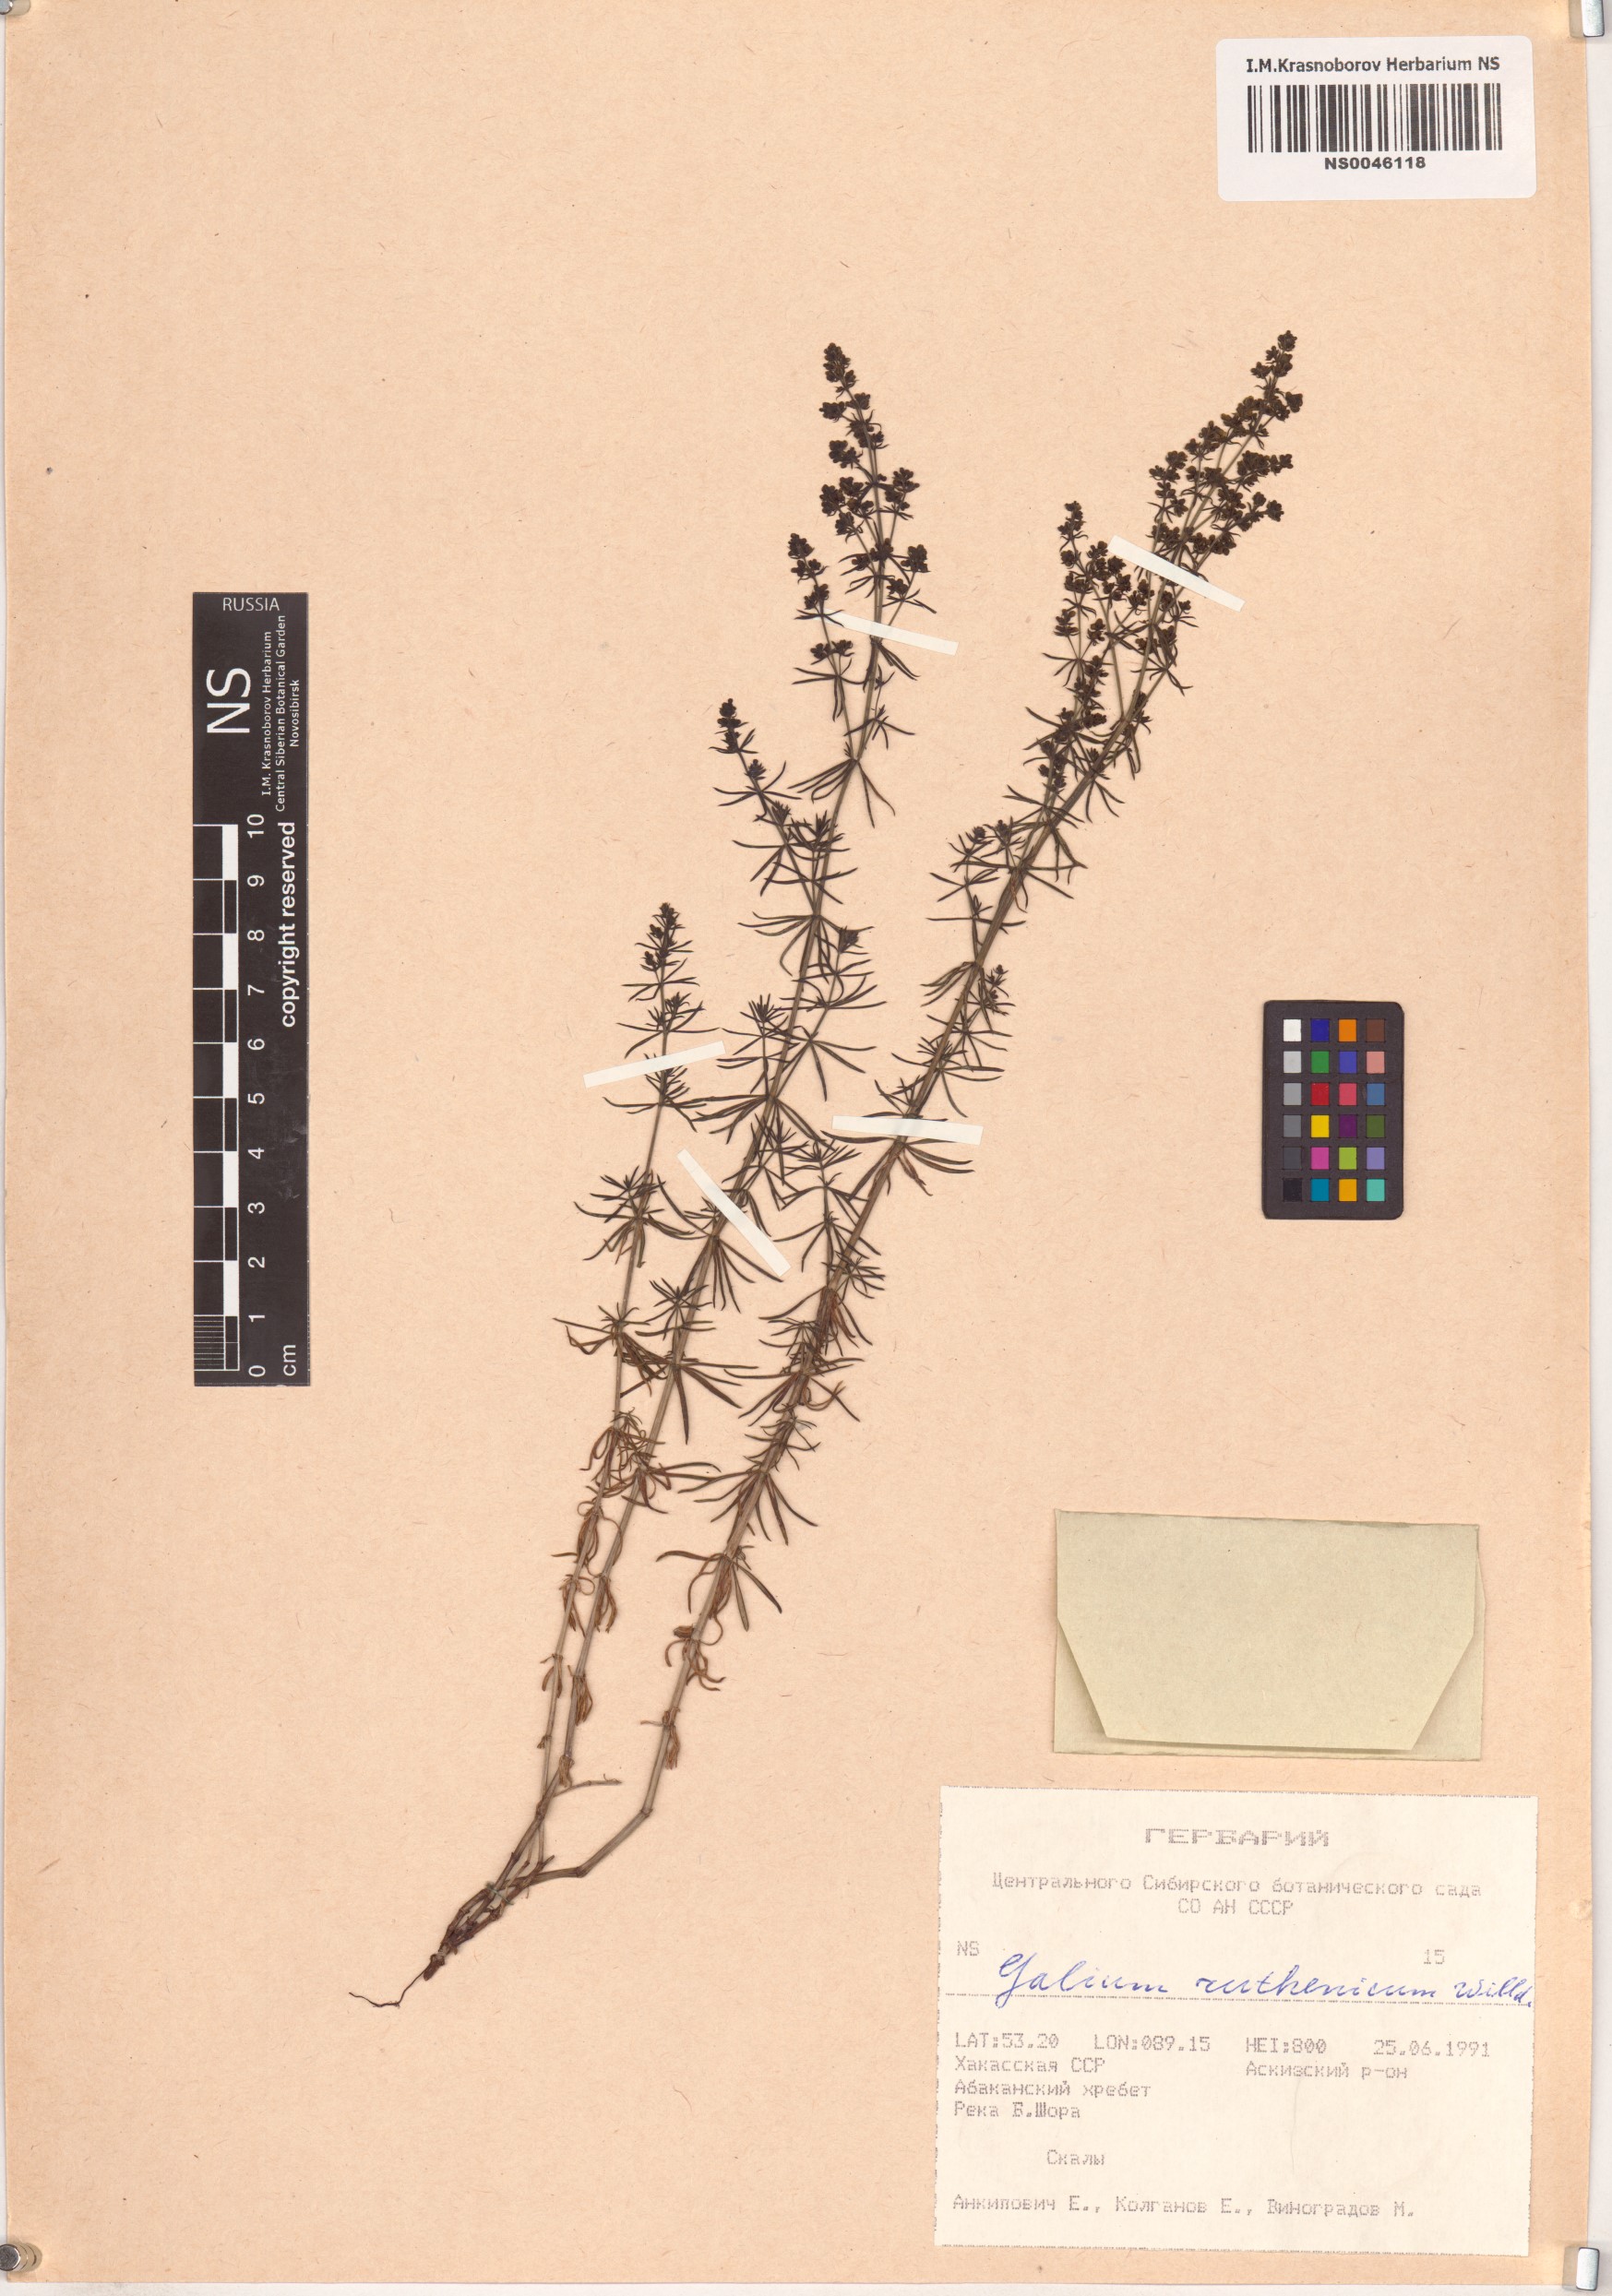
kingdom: Plantae
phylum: Tracheophyta
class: Magnoliopsida
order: Gentianales
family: Rubiaceae
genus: Galium
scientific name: Galium verum
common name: Lady's bedstraw
